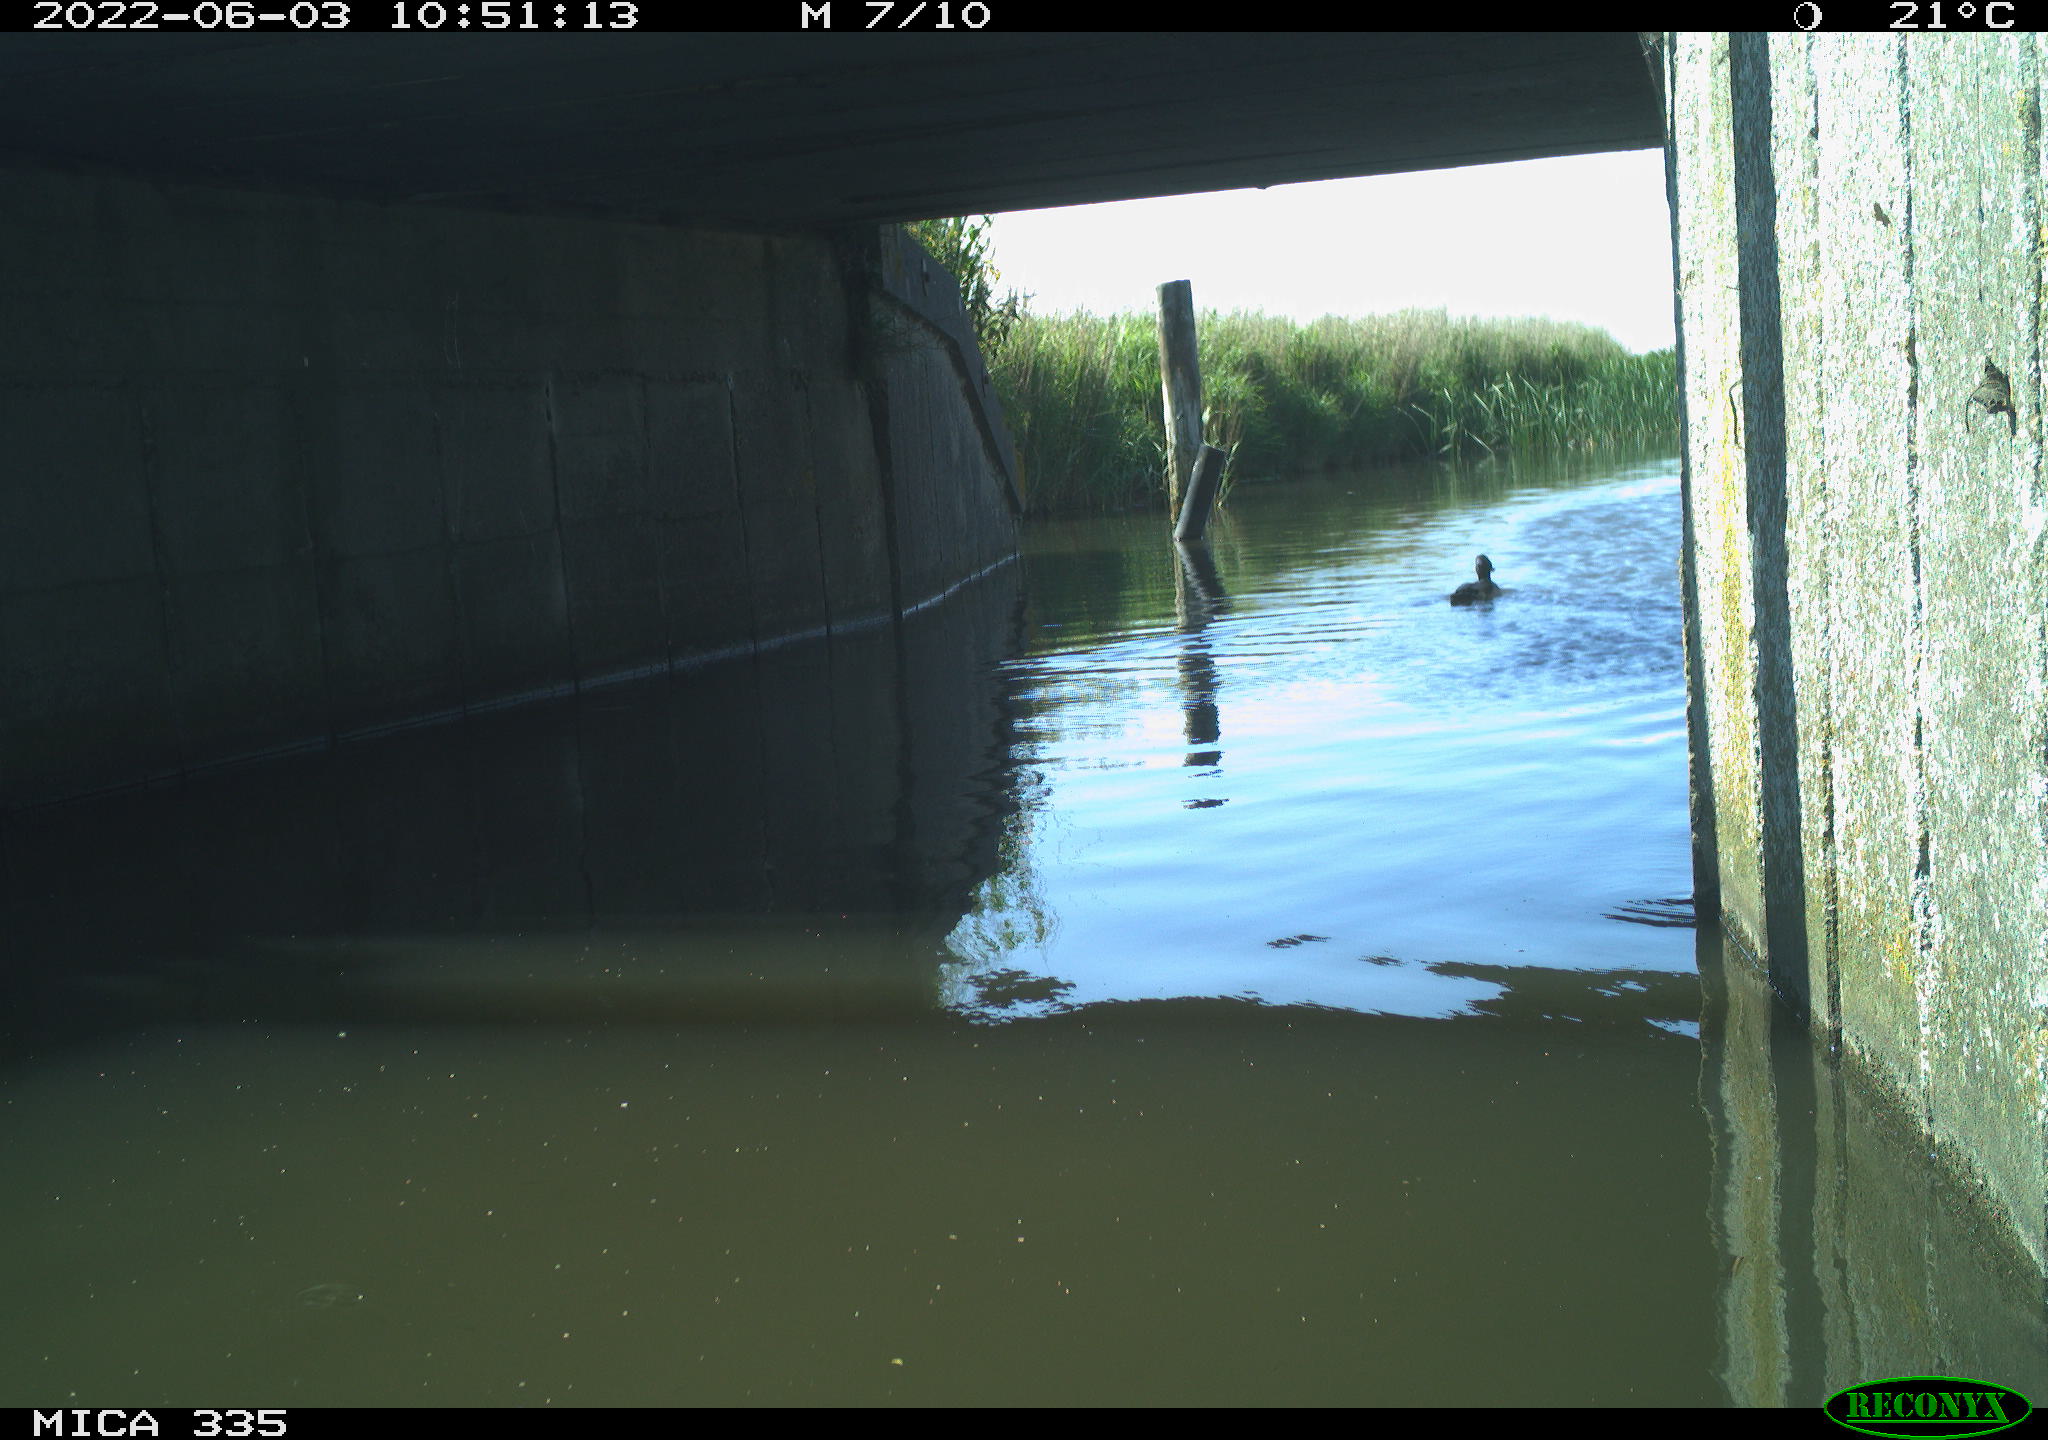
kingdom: Animalia
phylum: Chordata
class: Aves
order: Anseriformes
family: Anatidae
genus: Anas
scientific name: Anas platyrhynchos
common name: Mallard
